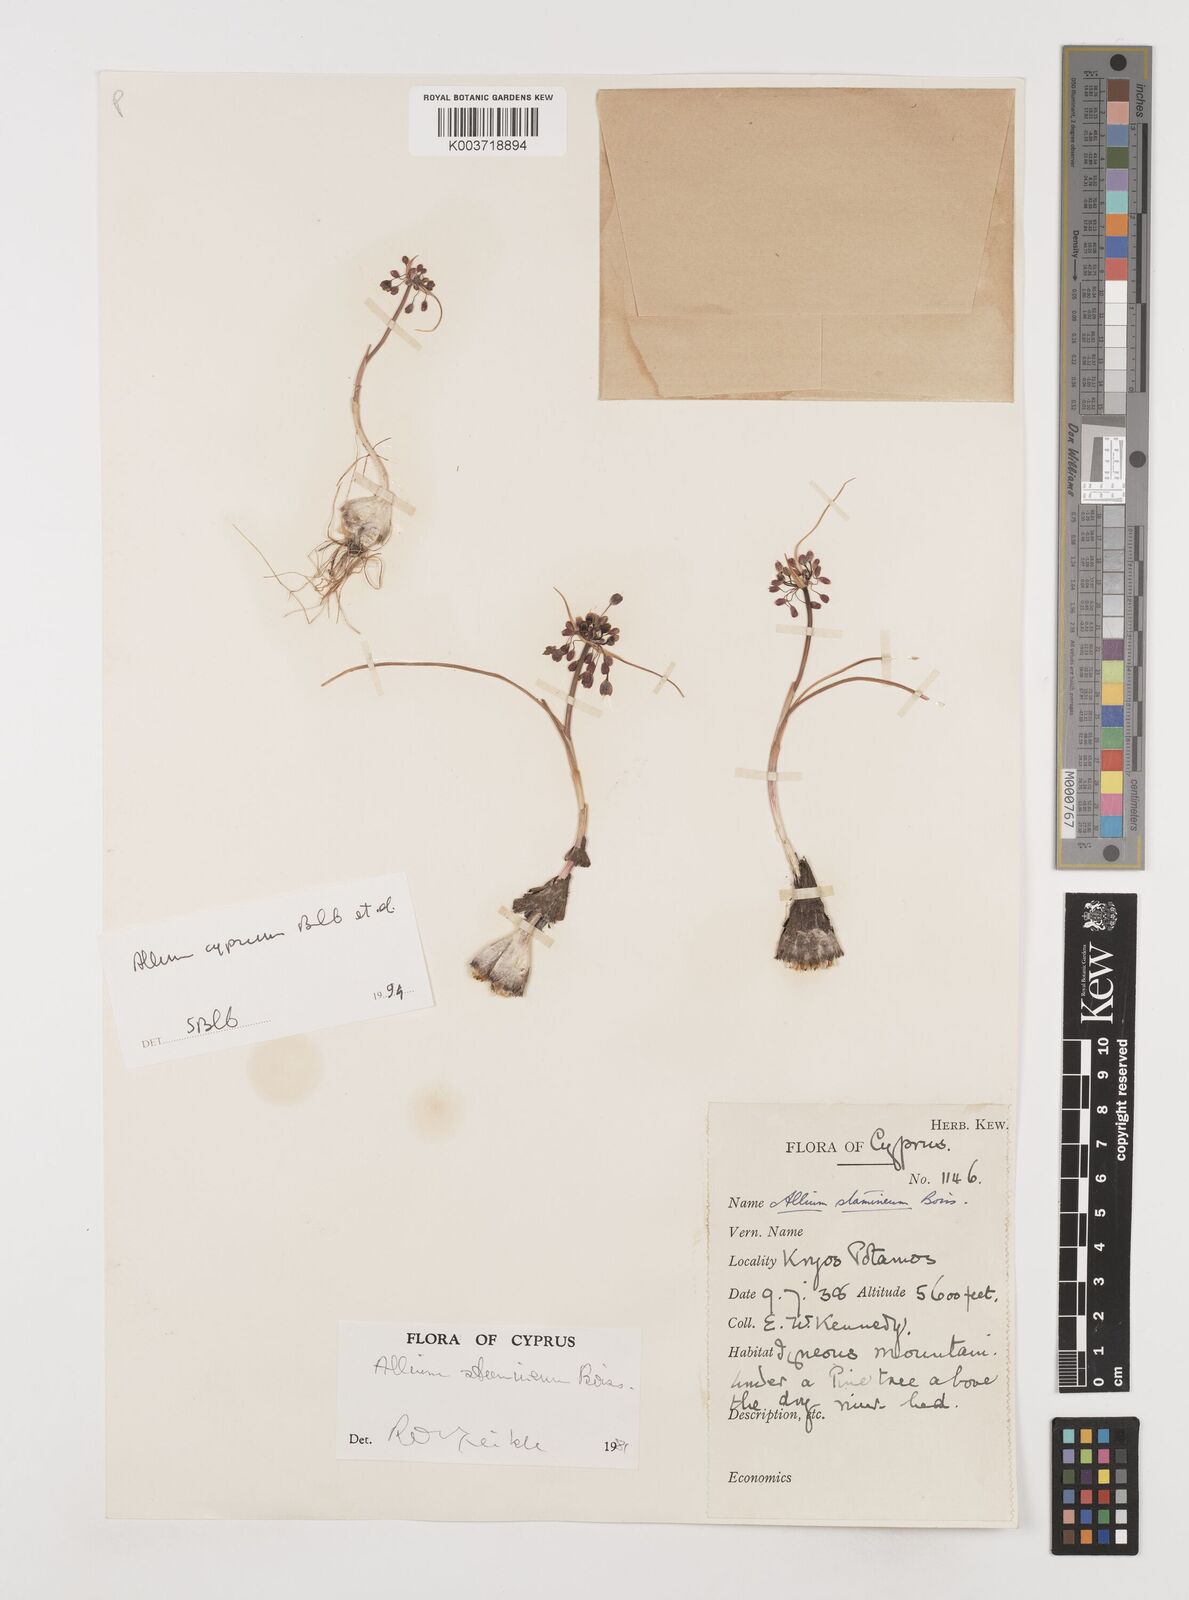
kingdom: Plantae
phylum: Tracheophyta
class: Liliopsida
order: Asparagales
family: Amaryllidaceae
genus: Allium
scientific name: Allium stamineum
